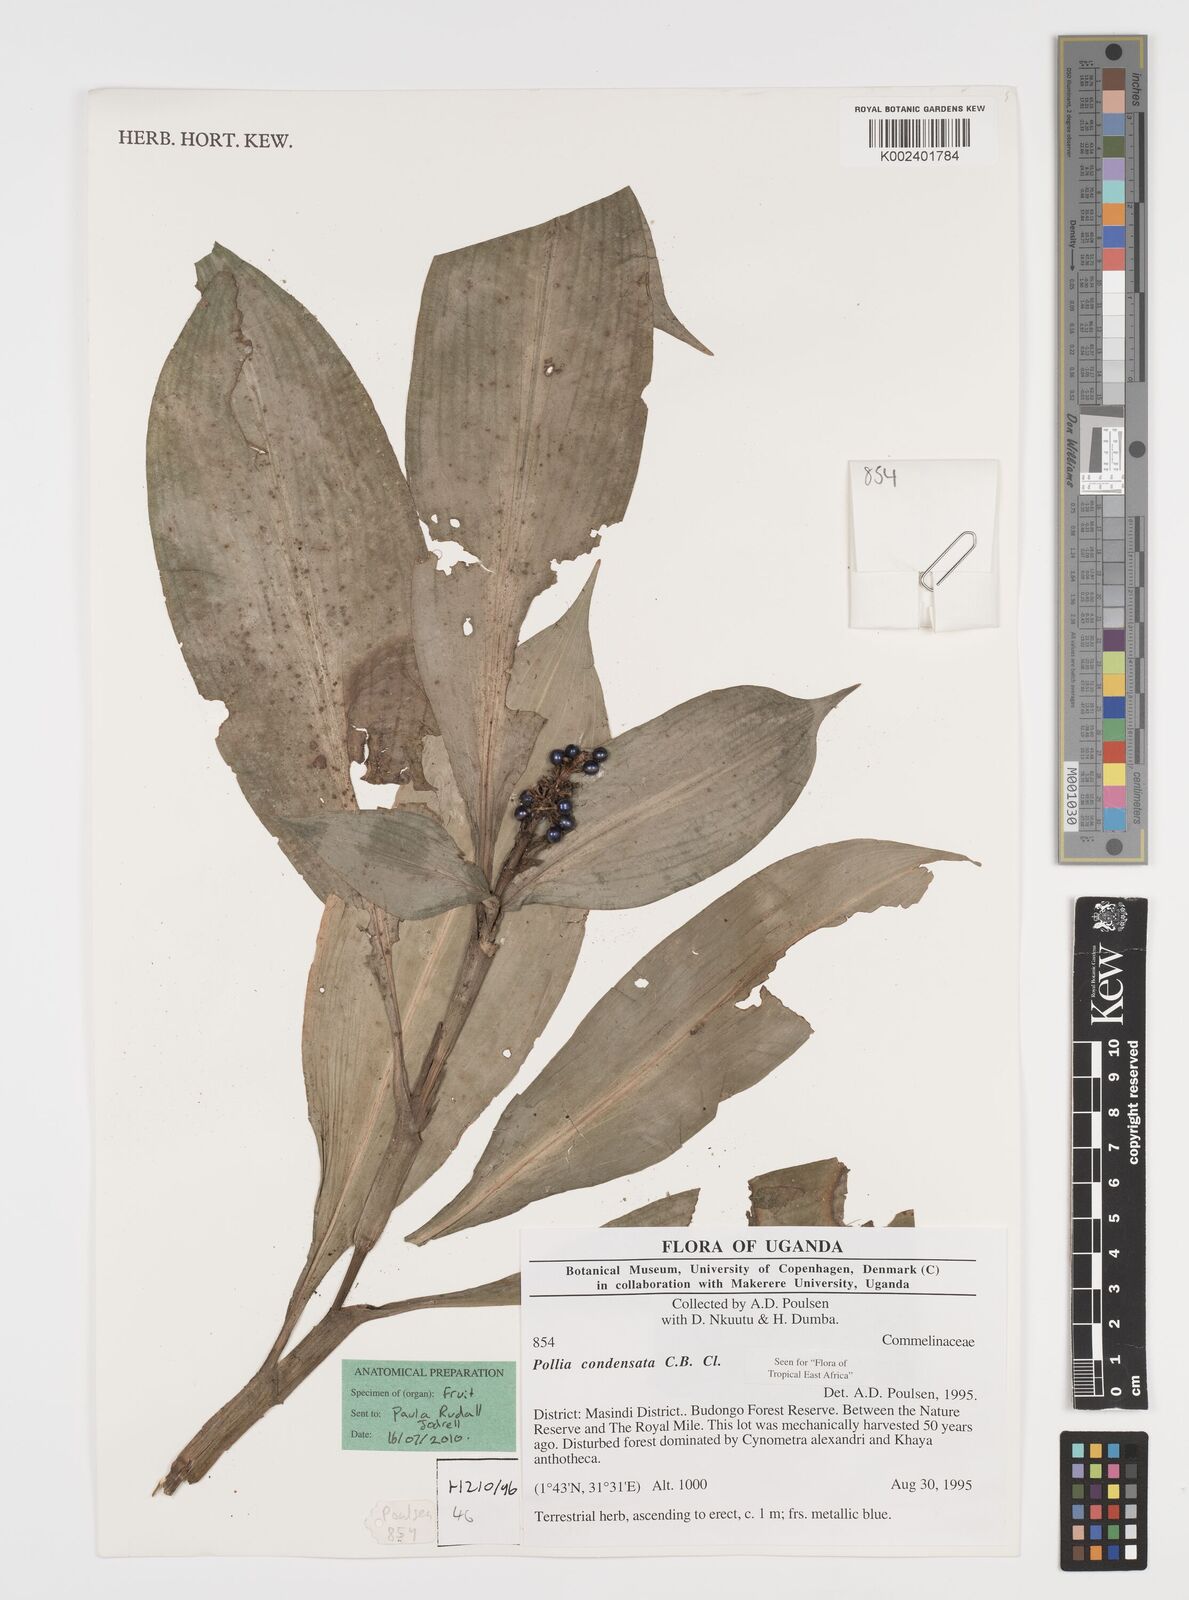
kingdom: Plantae
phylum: Tracheophyta
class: Liliopsida
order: Commelinales
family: Commelinaceae
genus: Pollia
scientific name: Pollia condensata
